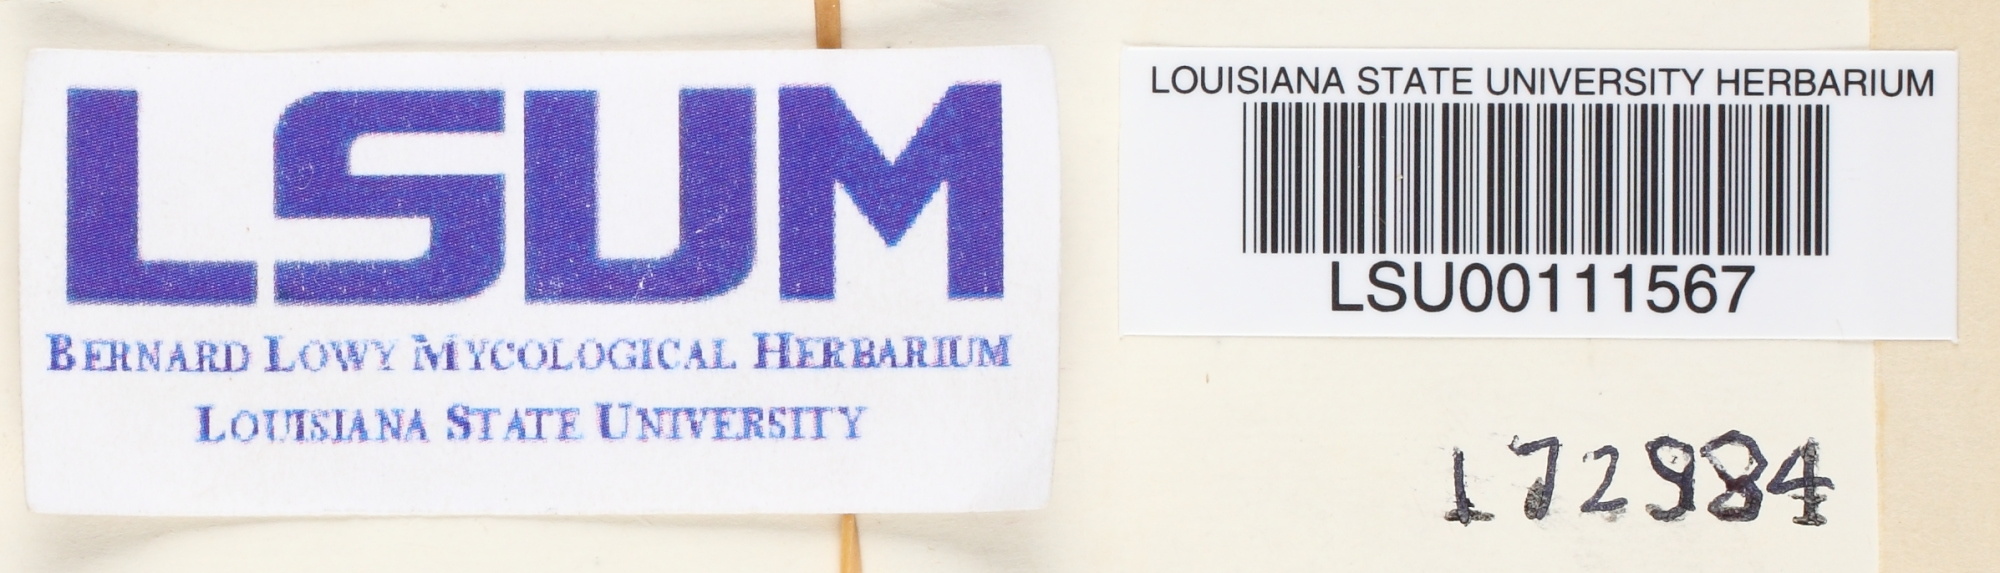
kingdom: Fungi
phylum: Basidiomycota
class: Agaricomycetes
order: Polyporales
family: Polyporaceae
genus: Lentinus
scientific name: Lentinus arcularius
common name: Spring polypore
